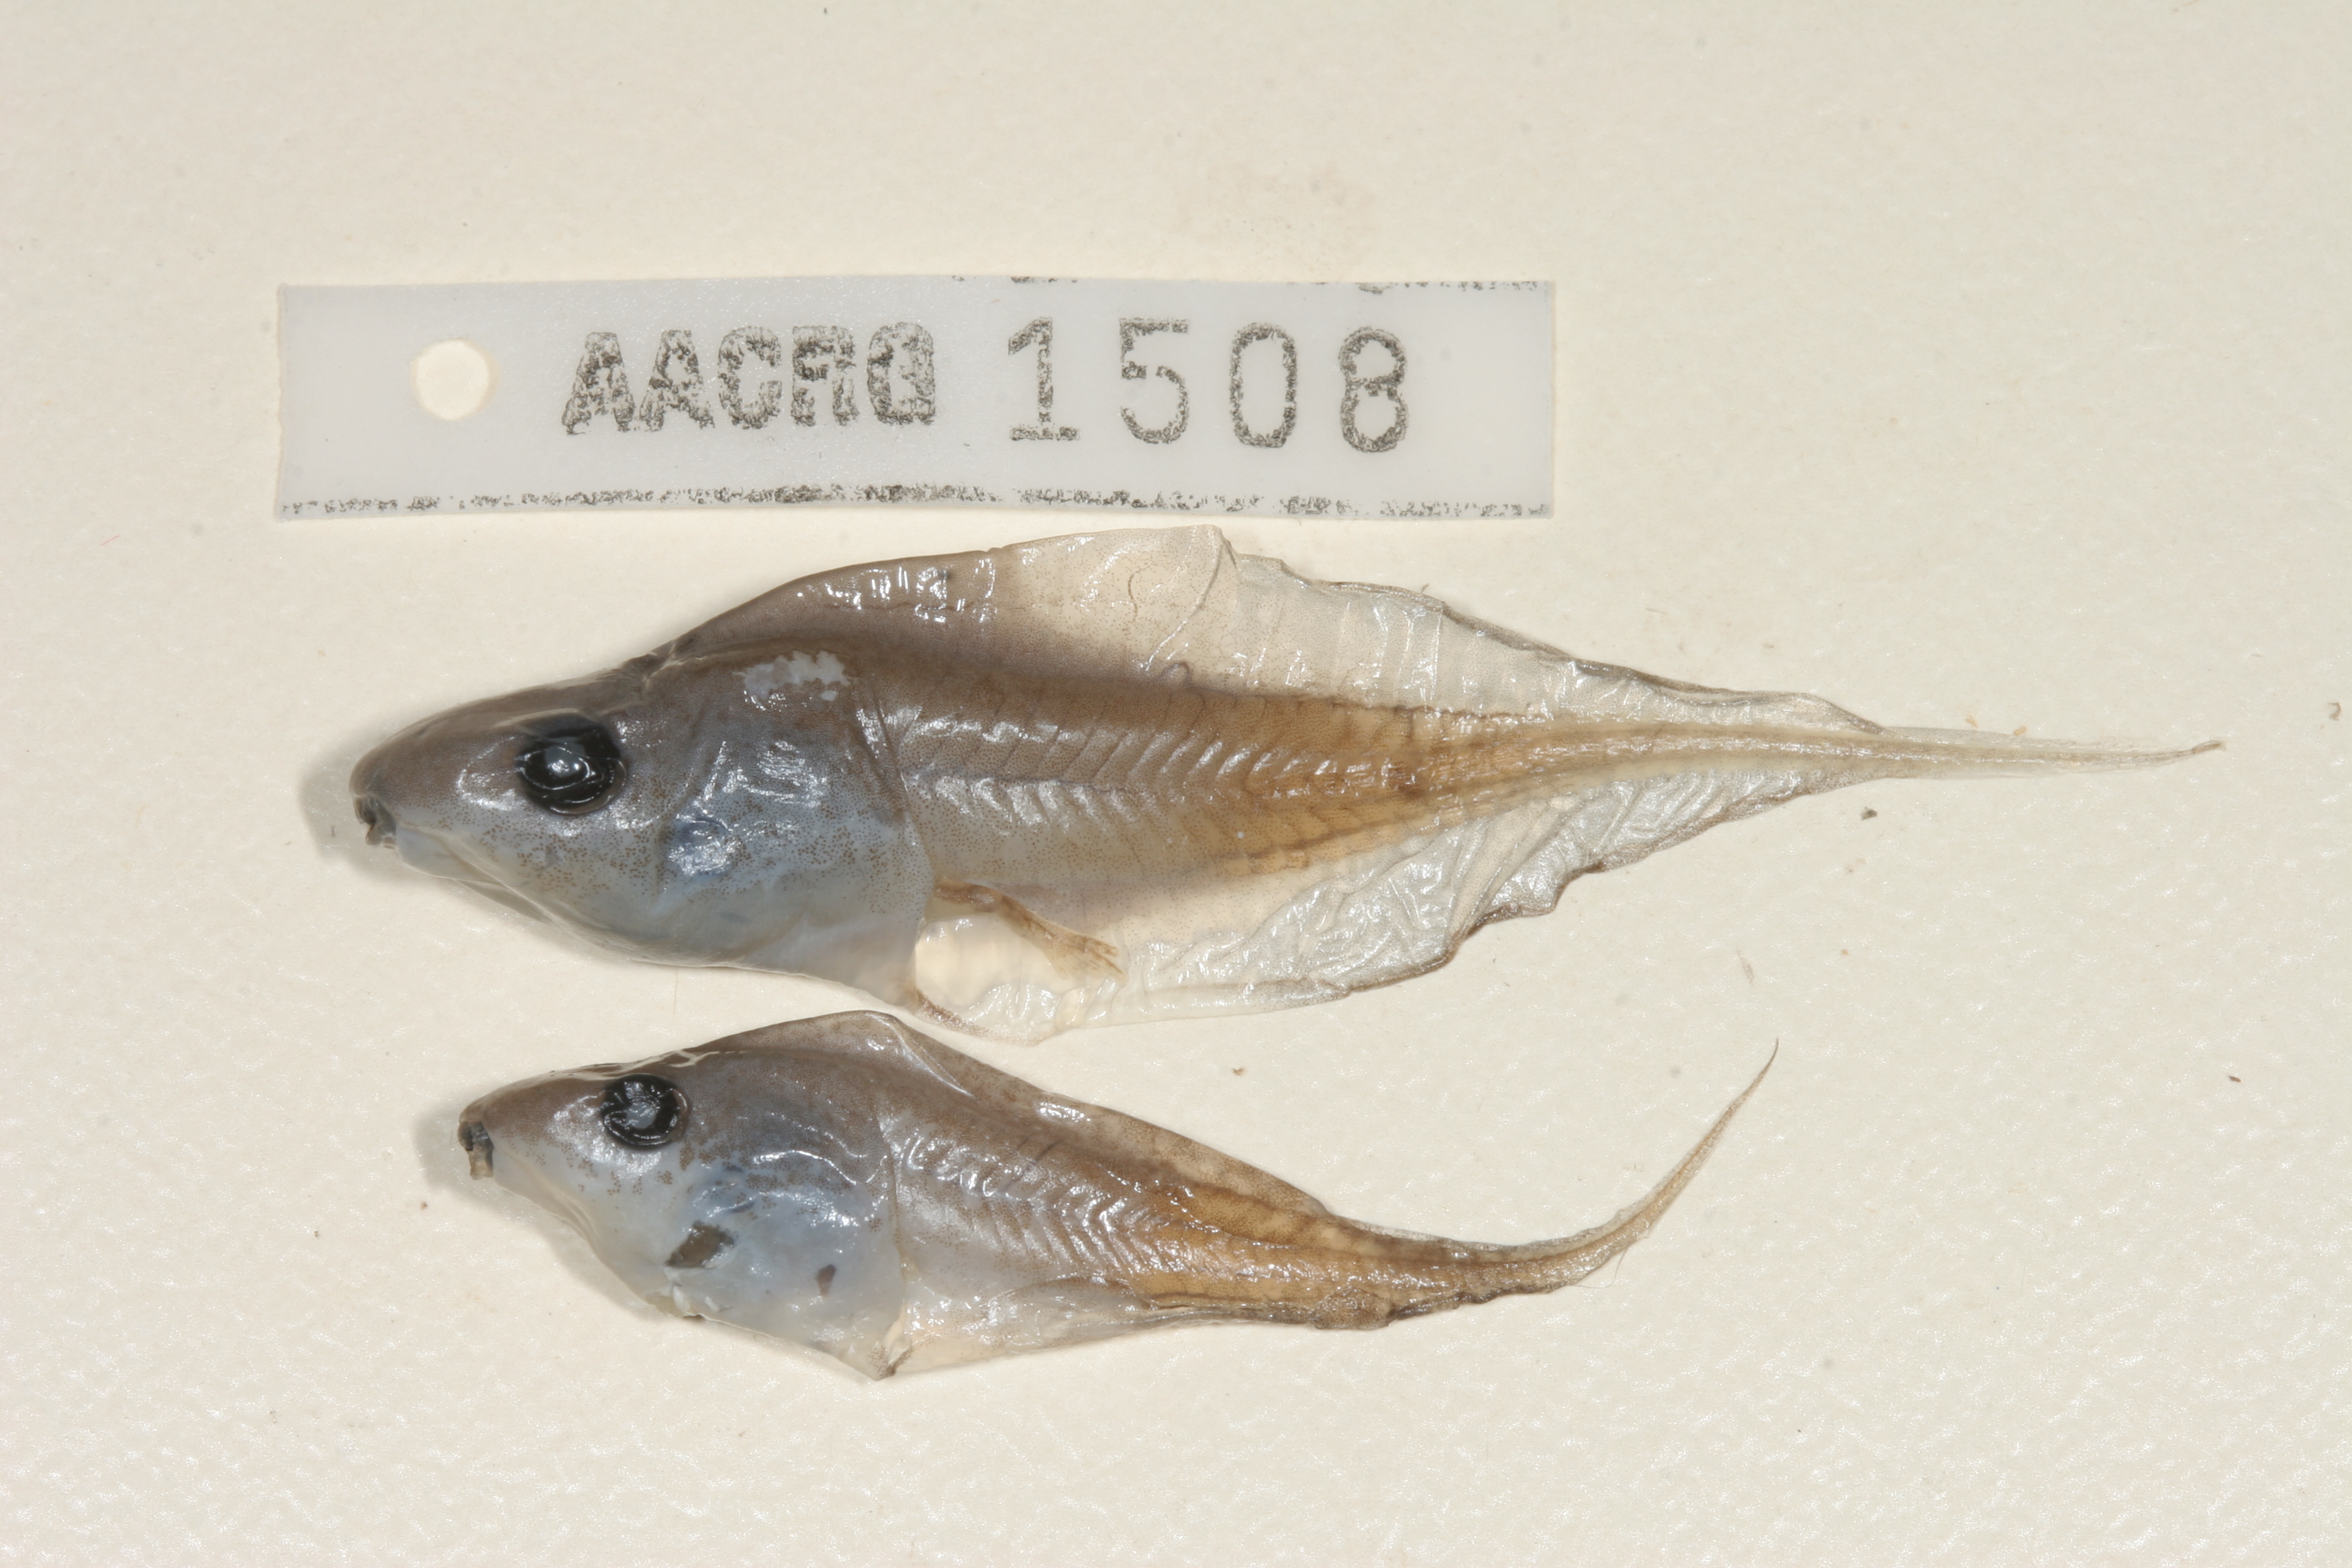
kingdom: Animalia
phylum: Chordata
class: Amphibia
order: Anura
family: Hyperoliidae
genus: Kassina
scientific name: Kassina senegalensis
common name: Senegal land frog
